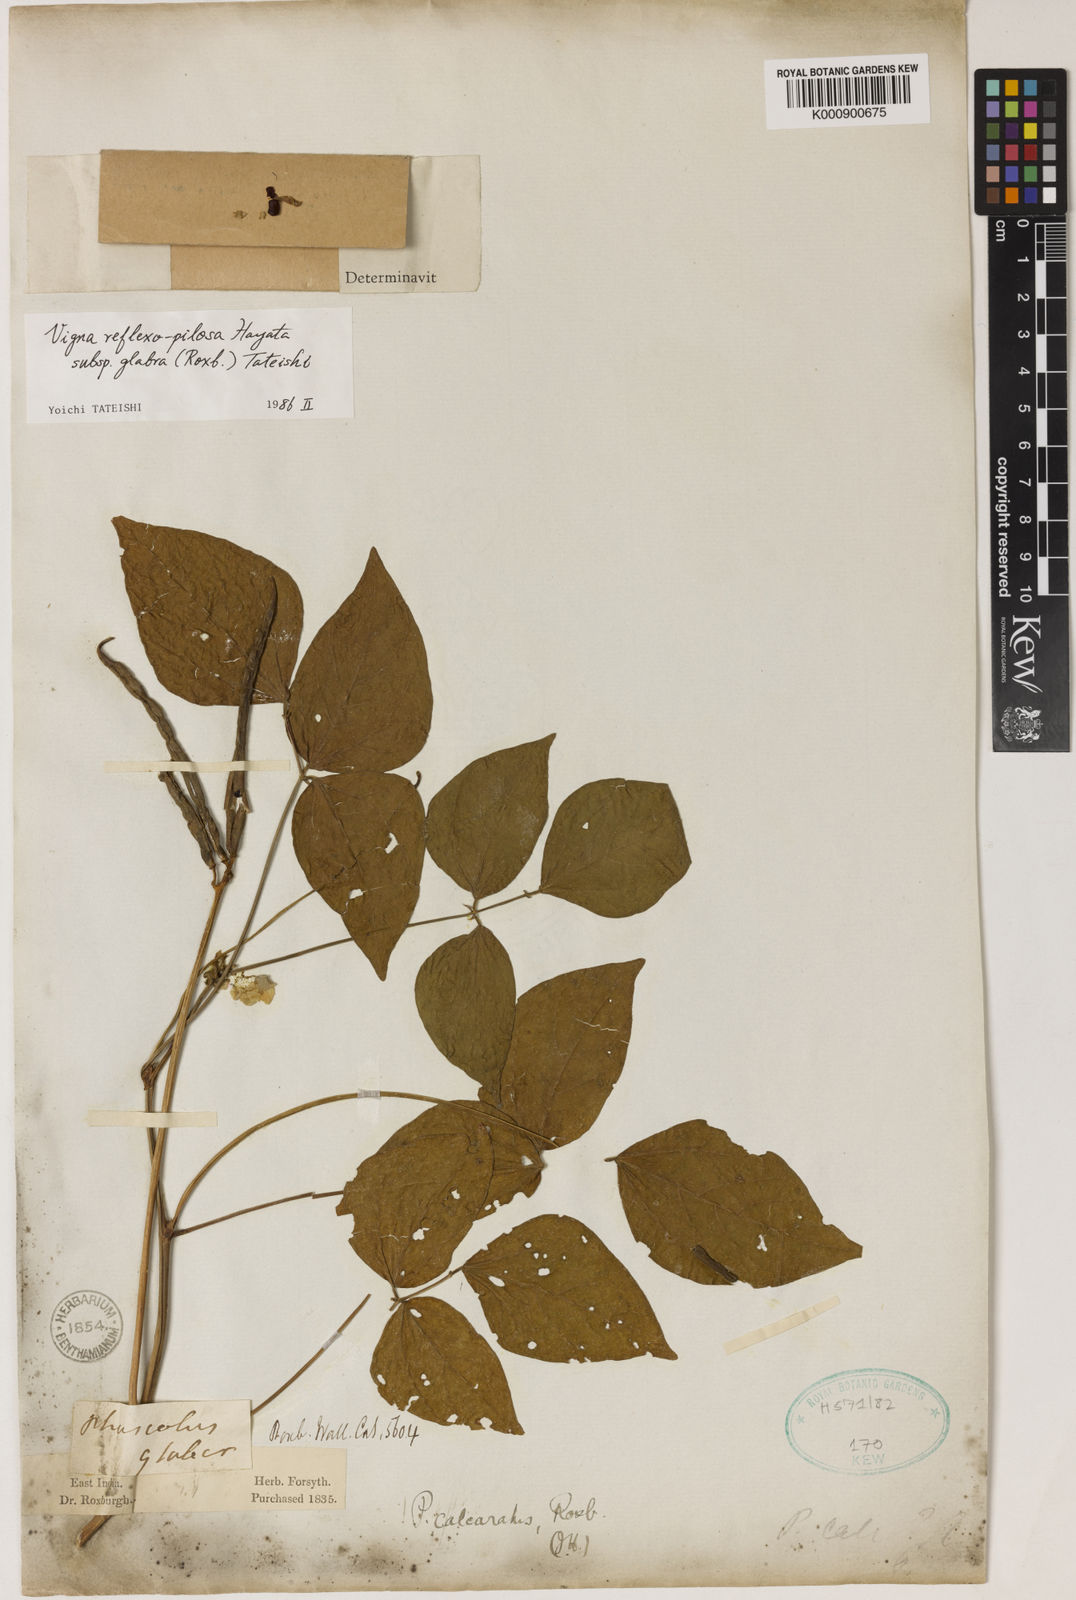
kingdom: Plantae
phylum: Tracheophyta
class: Magnoliopsida
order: Fabales
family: Fabaceae
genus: Vigna
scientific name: Vigna reflexopilosa
